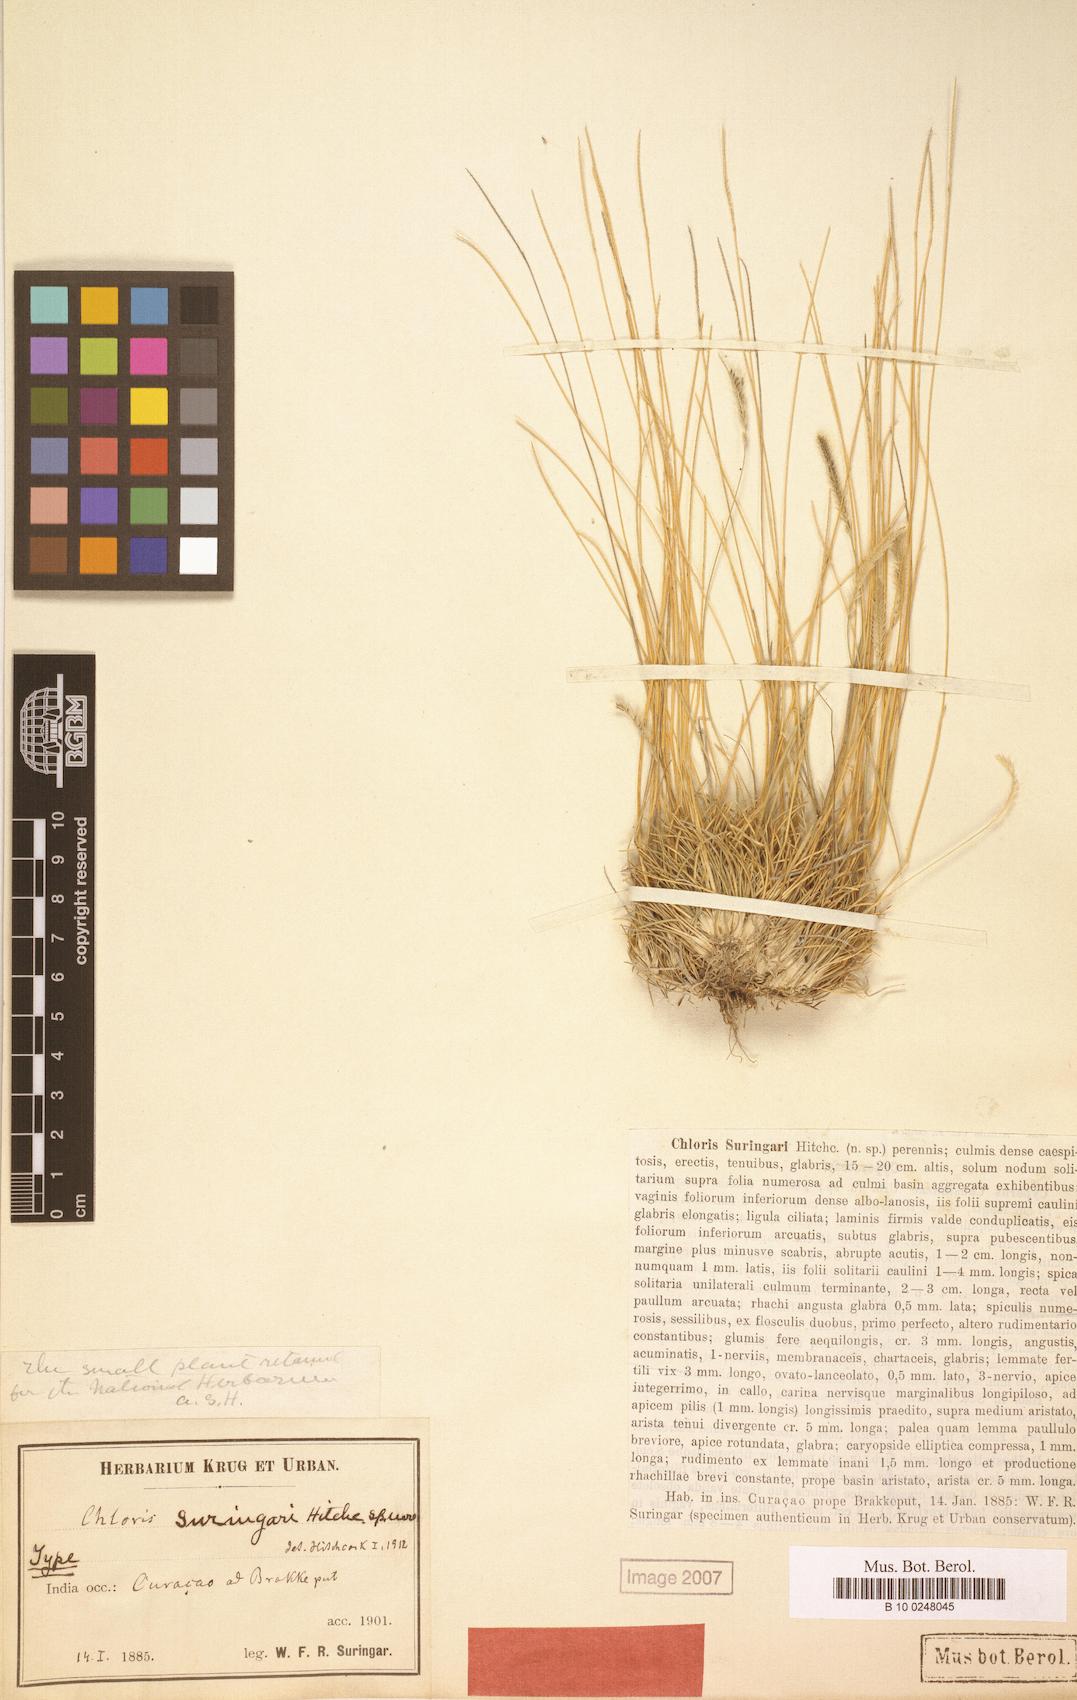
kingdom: Plantae
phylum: Tracheophyta
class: Liliopsida
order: Poales
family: Poaceae
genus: Chloris
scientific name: Chloris suringarii
